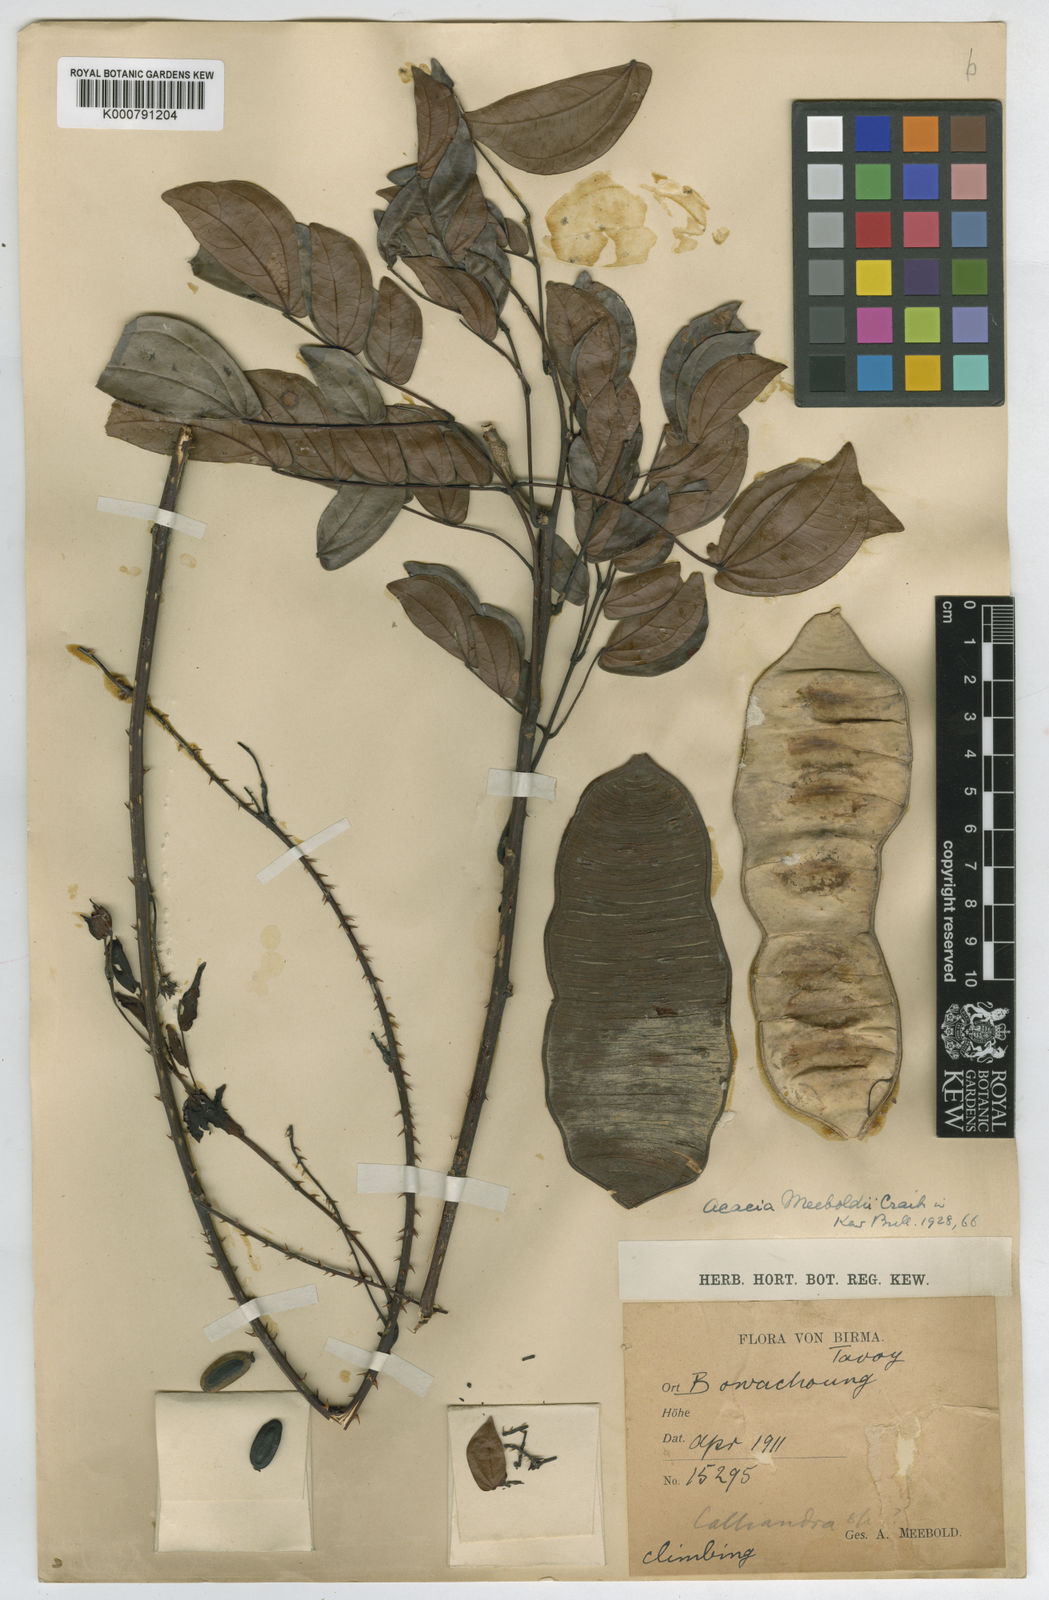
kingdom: Plantae
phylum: Tracheophyta
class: Magnoliopsida
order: Fabales
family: Fabaceae
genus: Senegalia
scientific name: Senegalia meeboldii
